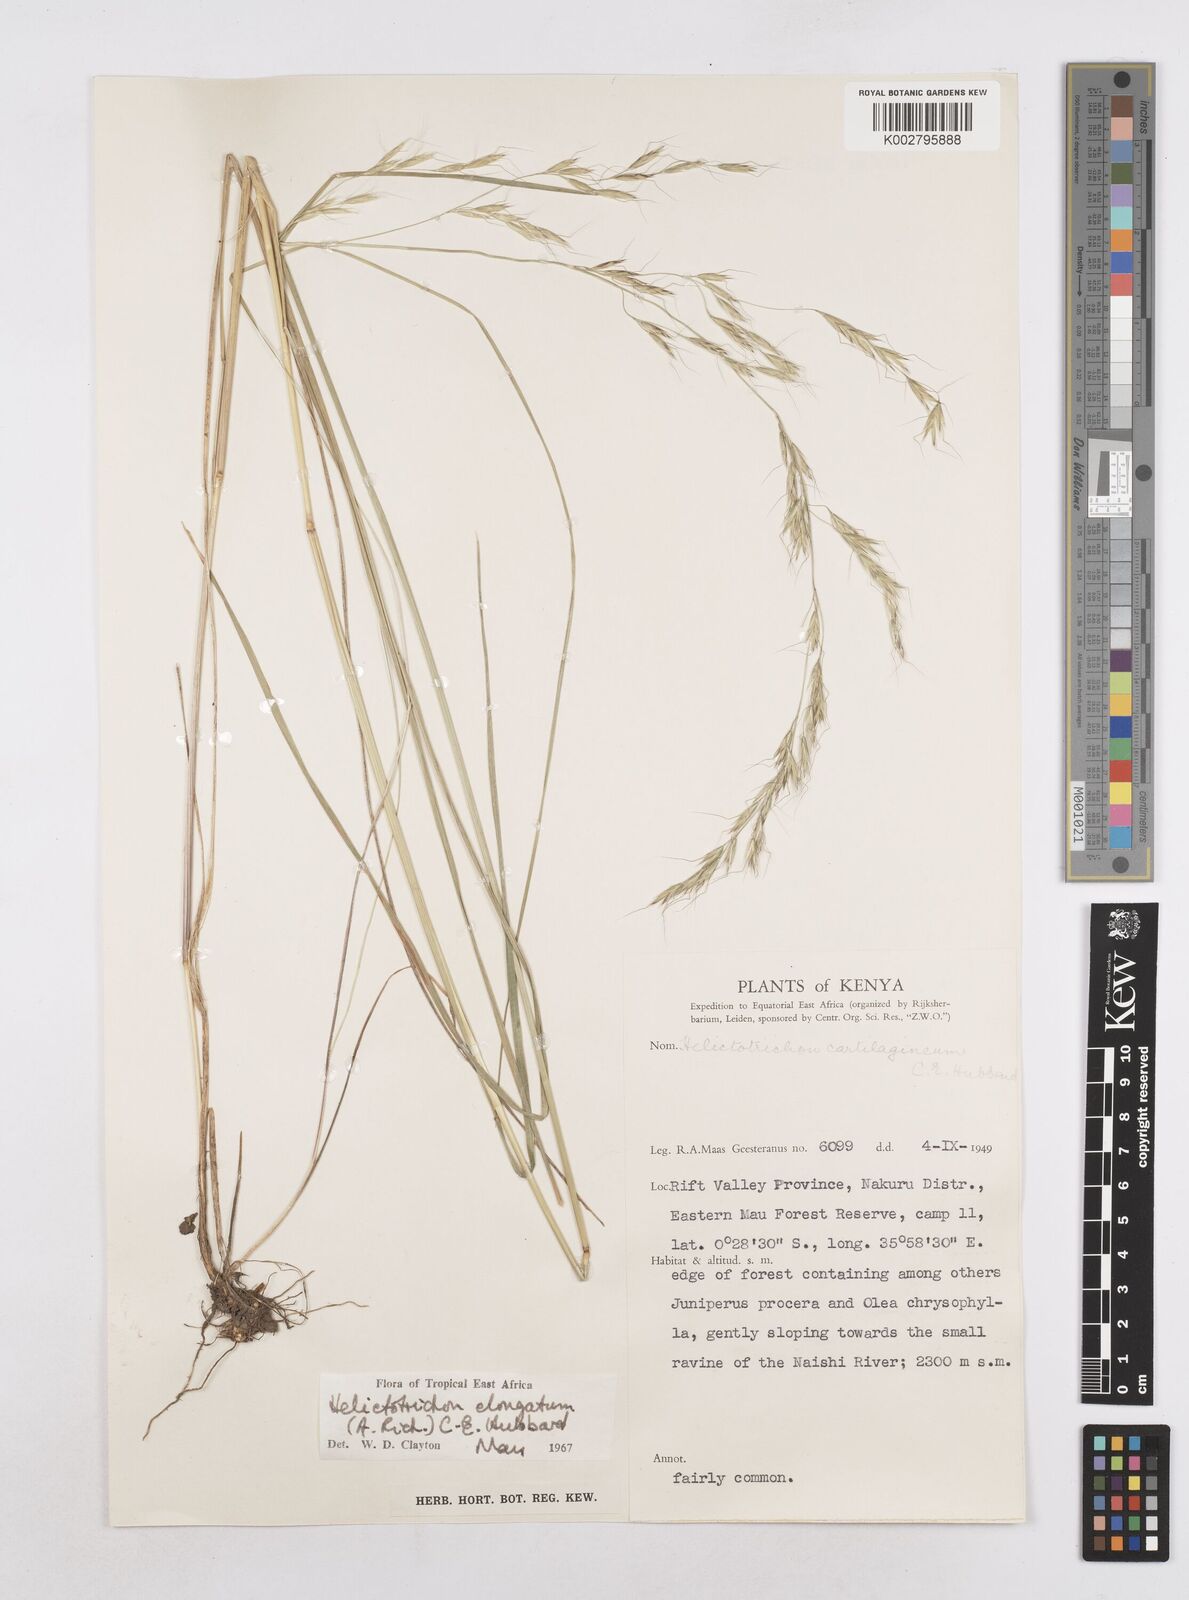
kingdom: Plantae
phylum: Tracheophyta
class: Liliopsida
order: Poales
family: Poaceae
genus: Trisetopsis
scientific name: Trisetopsis elongata
